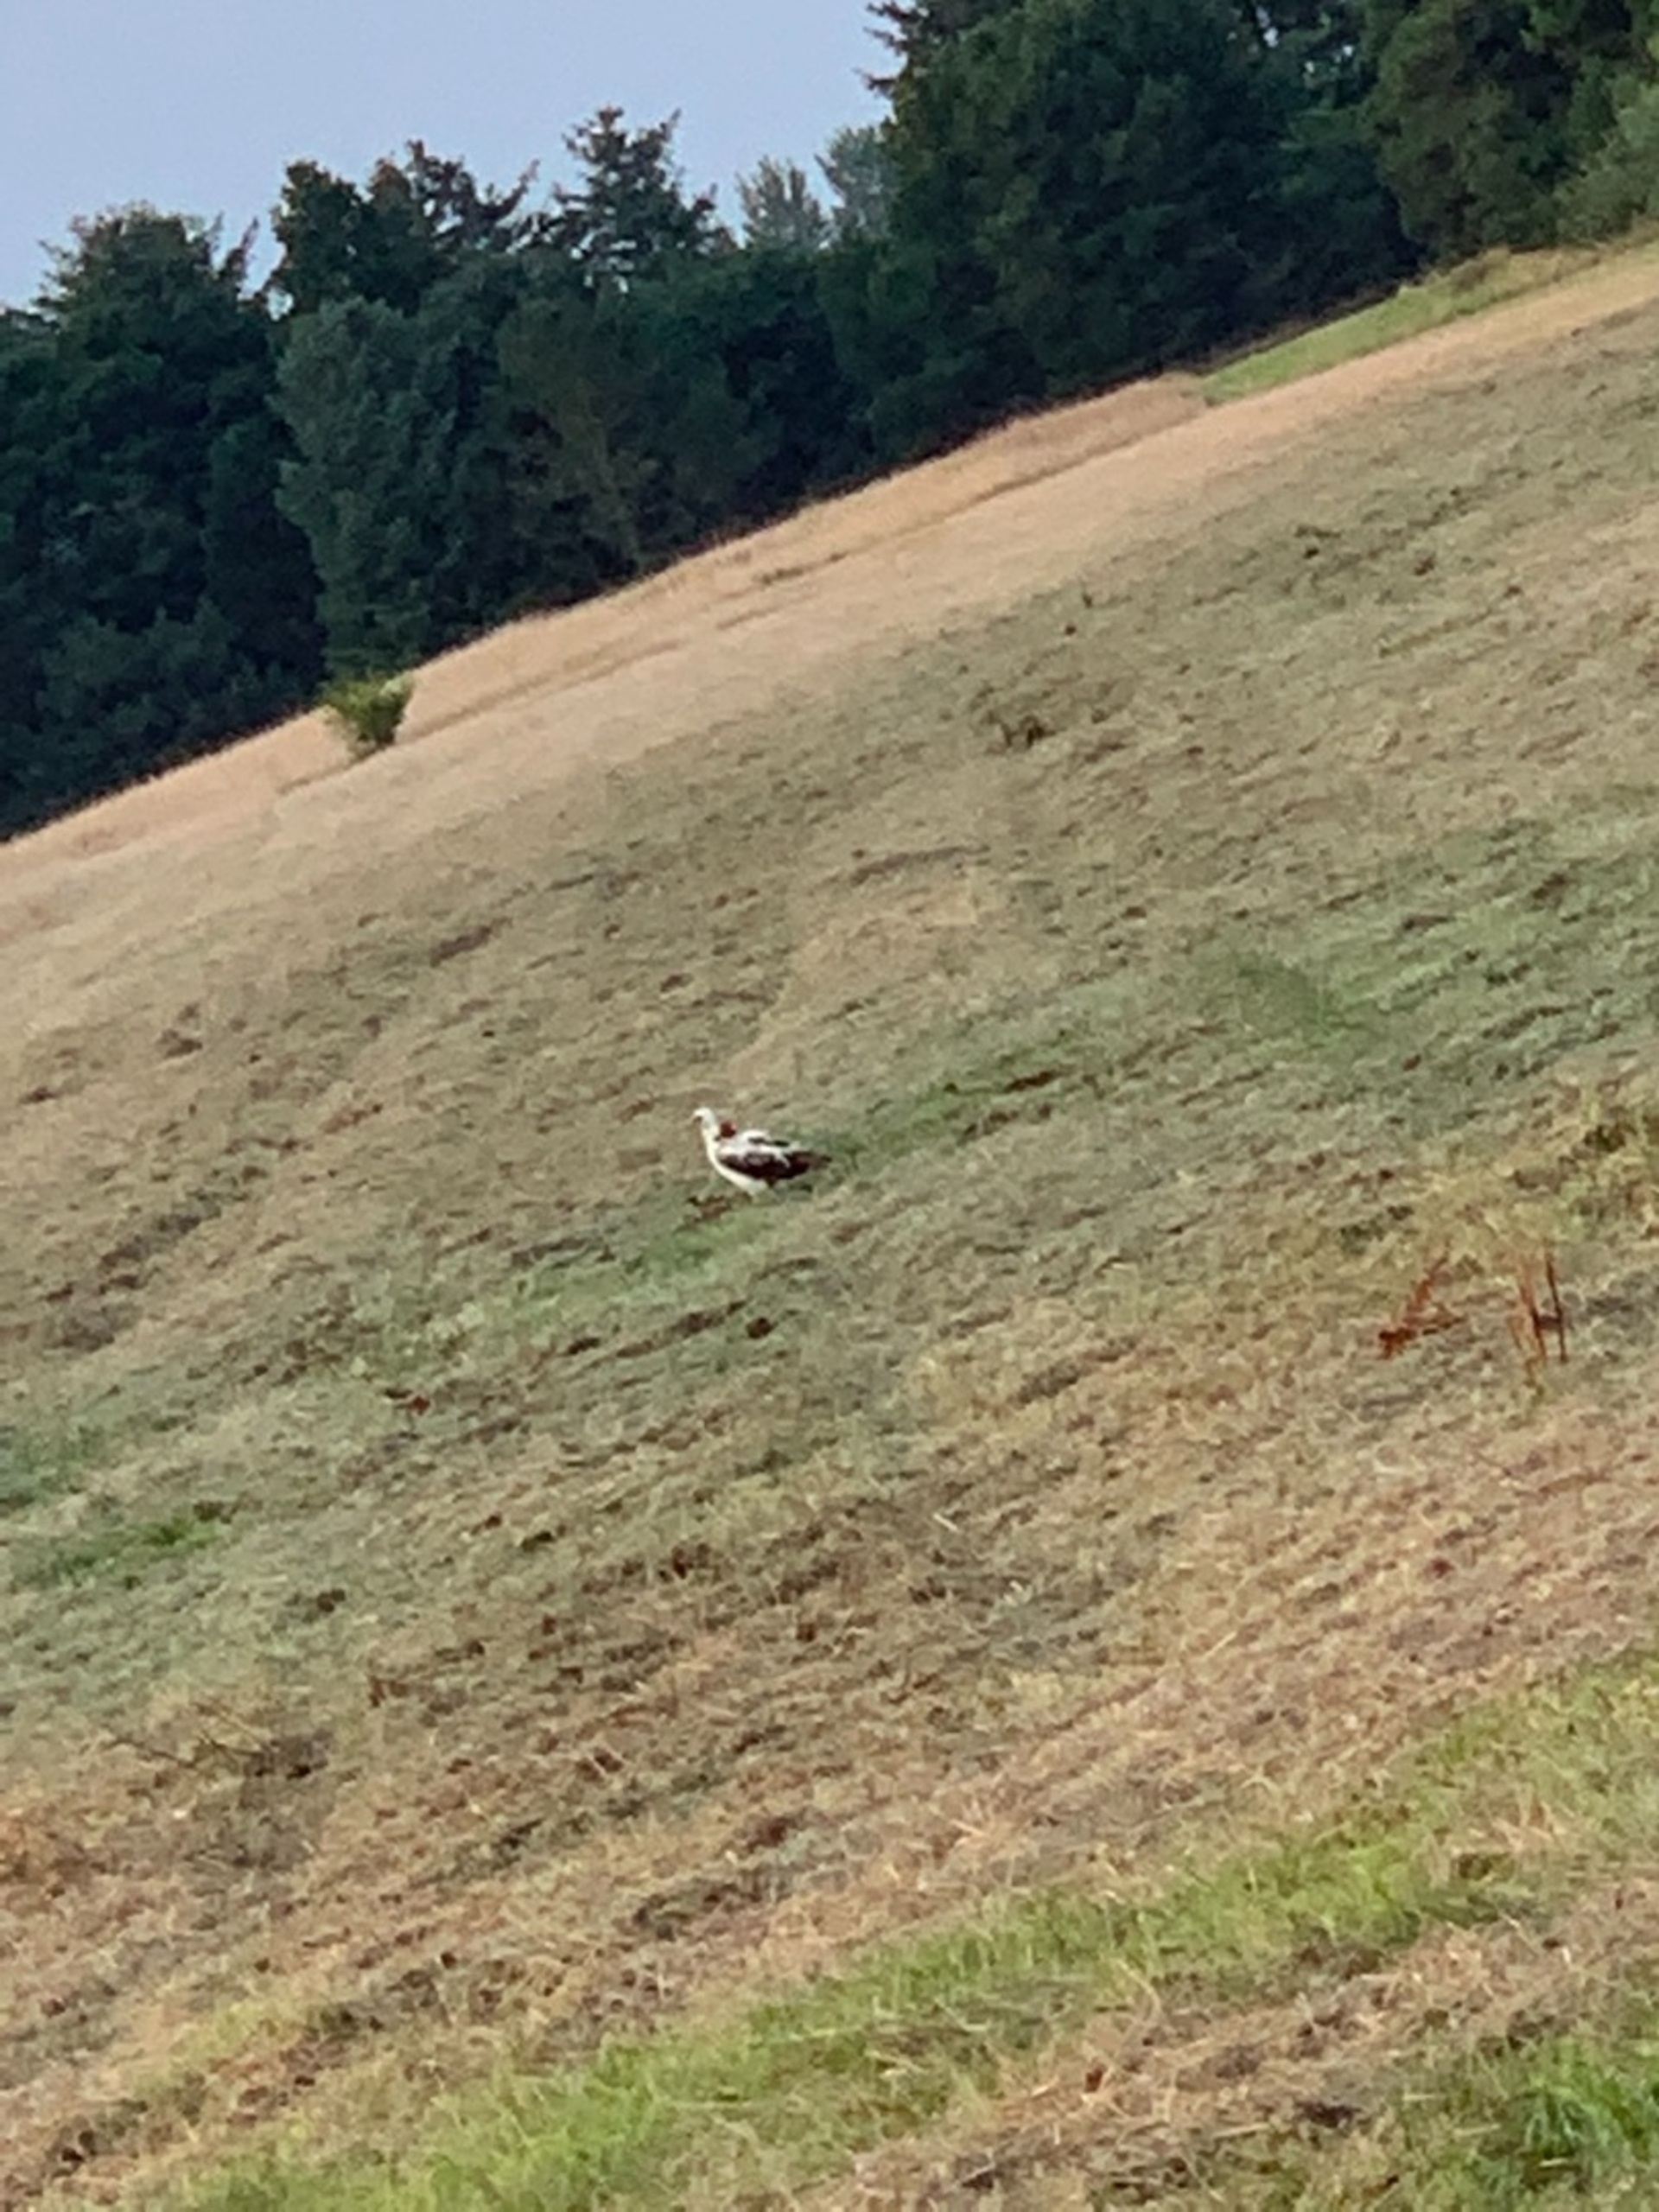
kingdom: Animalia
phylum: Chordata
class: Aves
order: Accipitriformes
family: Accipitridae
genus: Buteo
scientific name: Buteo buteo
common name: Musvåge
